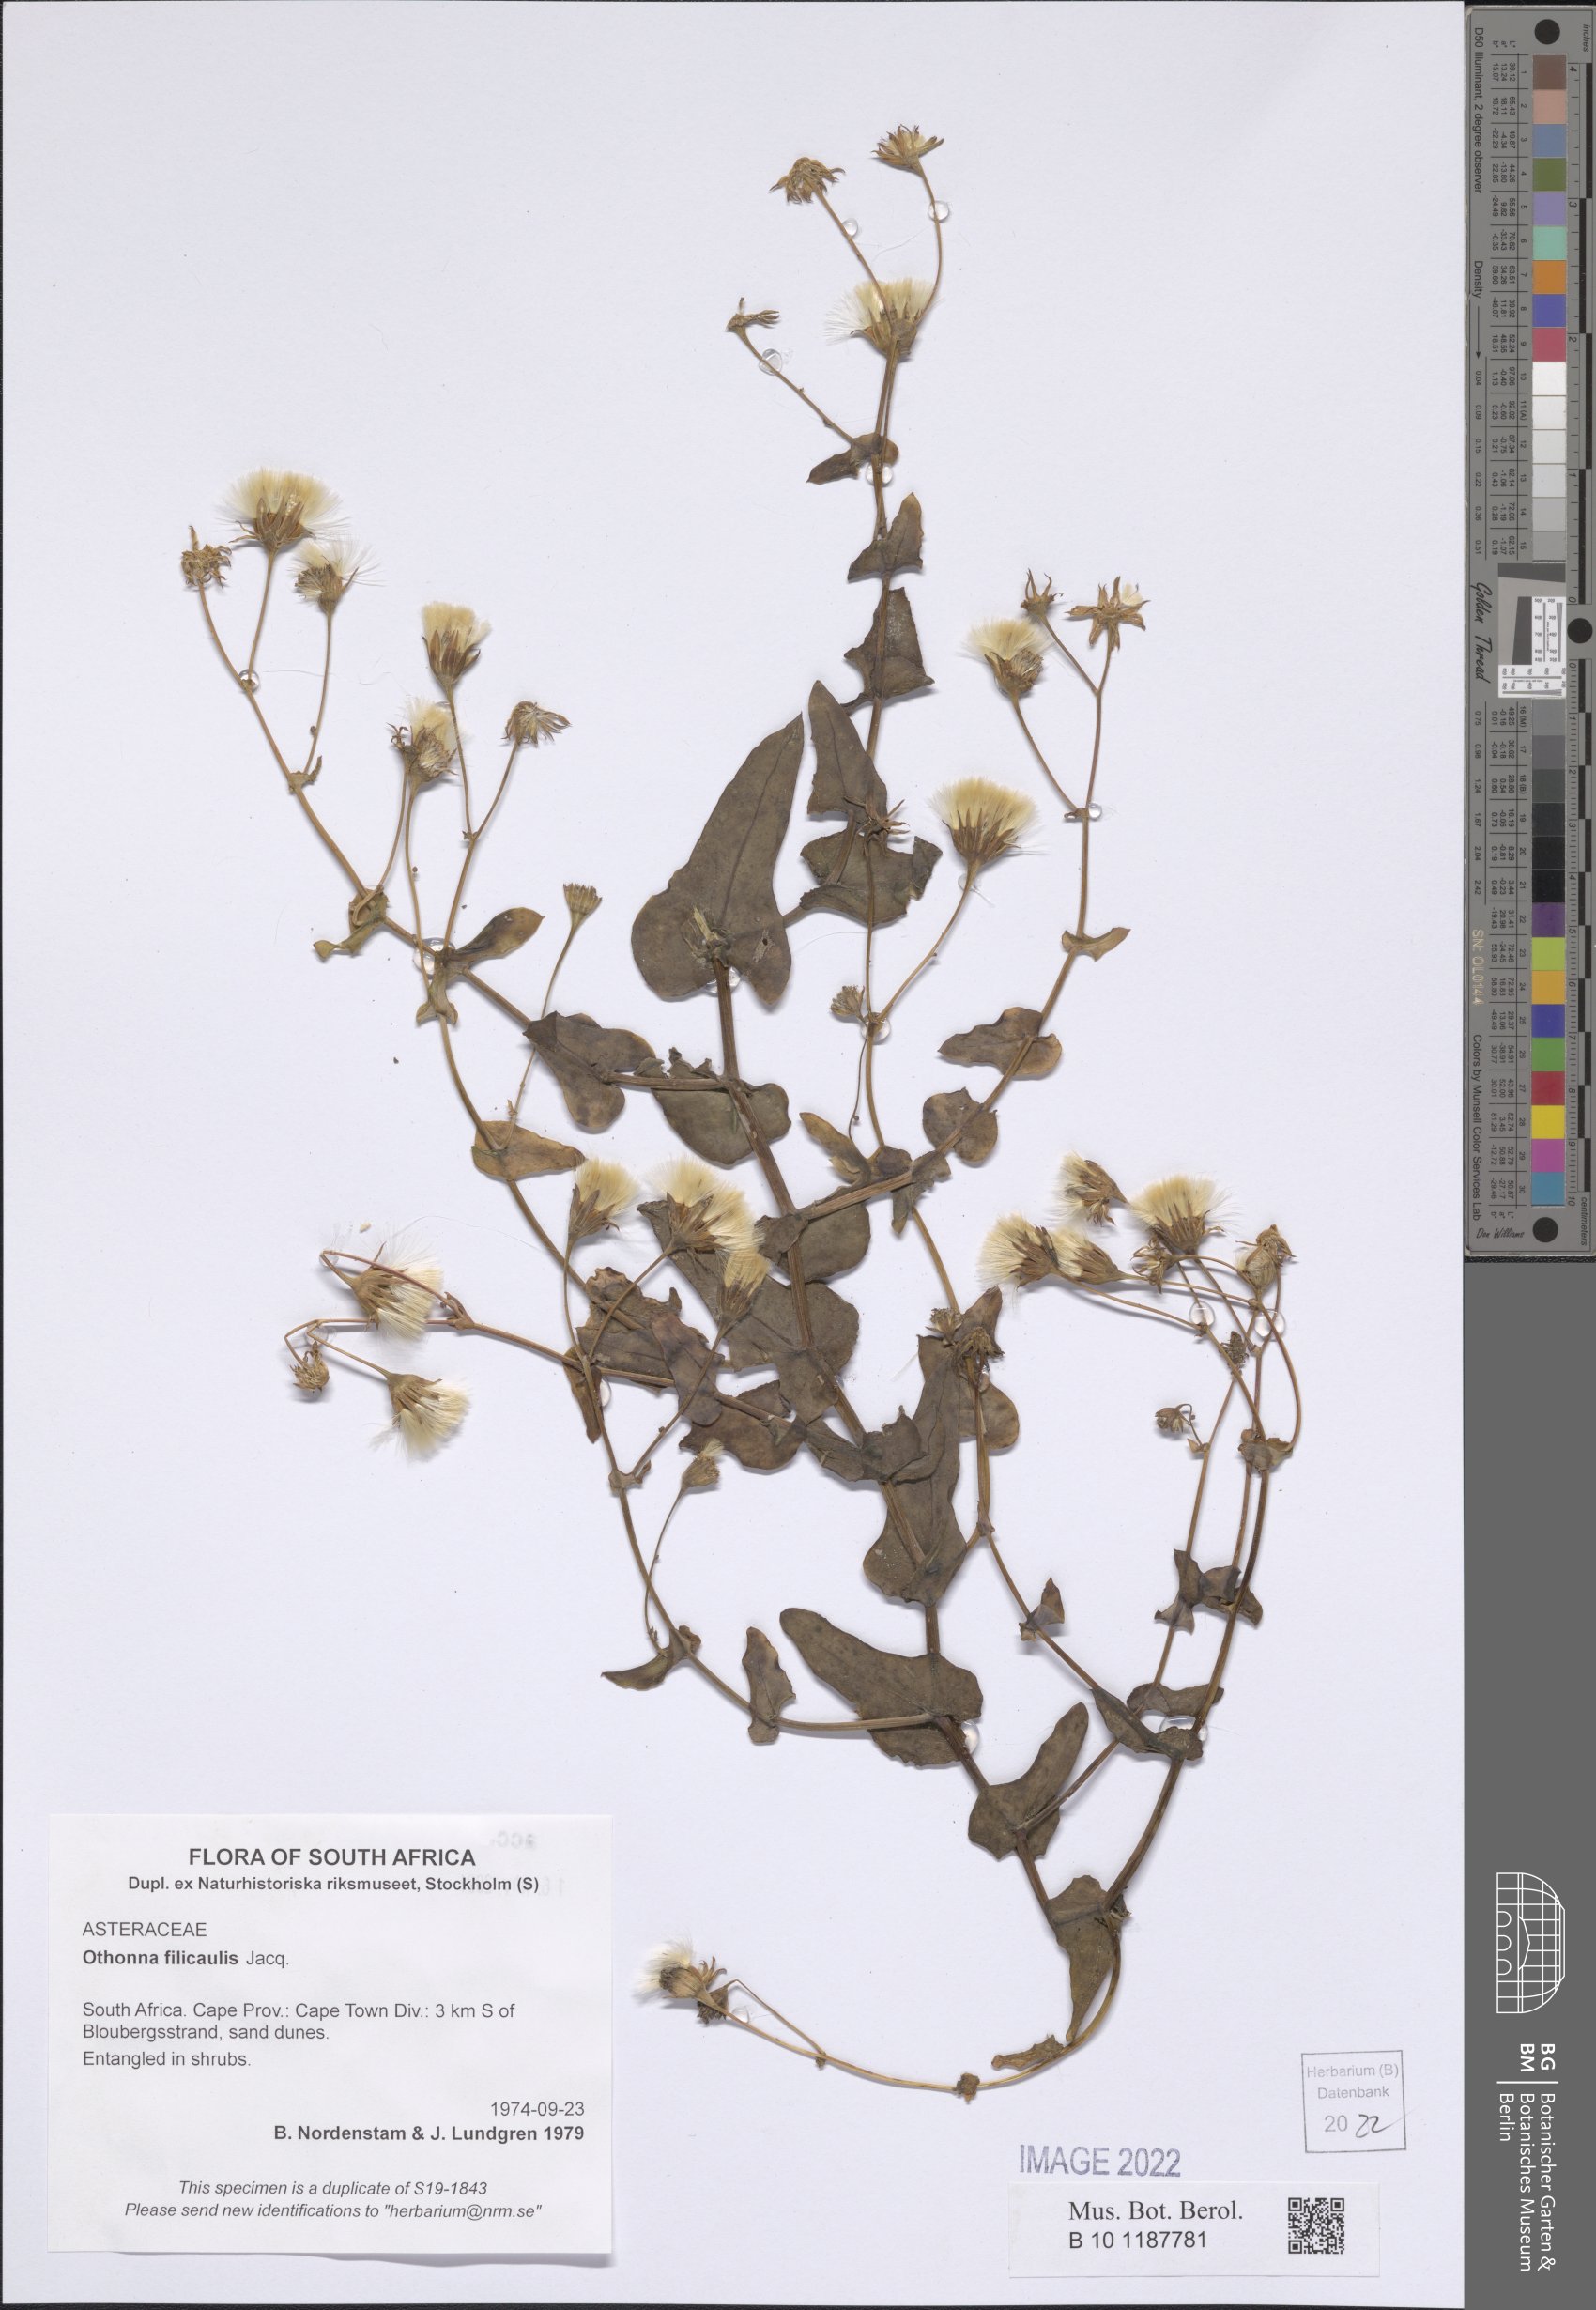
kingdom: Plantae
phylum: Tracheophyta
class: Magnoliopsida
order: Asterales
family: Asteraceae
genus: Othonna
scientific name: Othonna perfoliata
